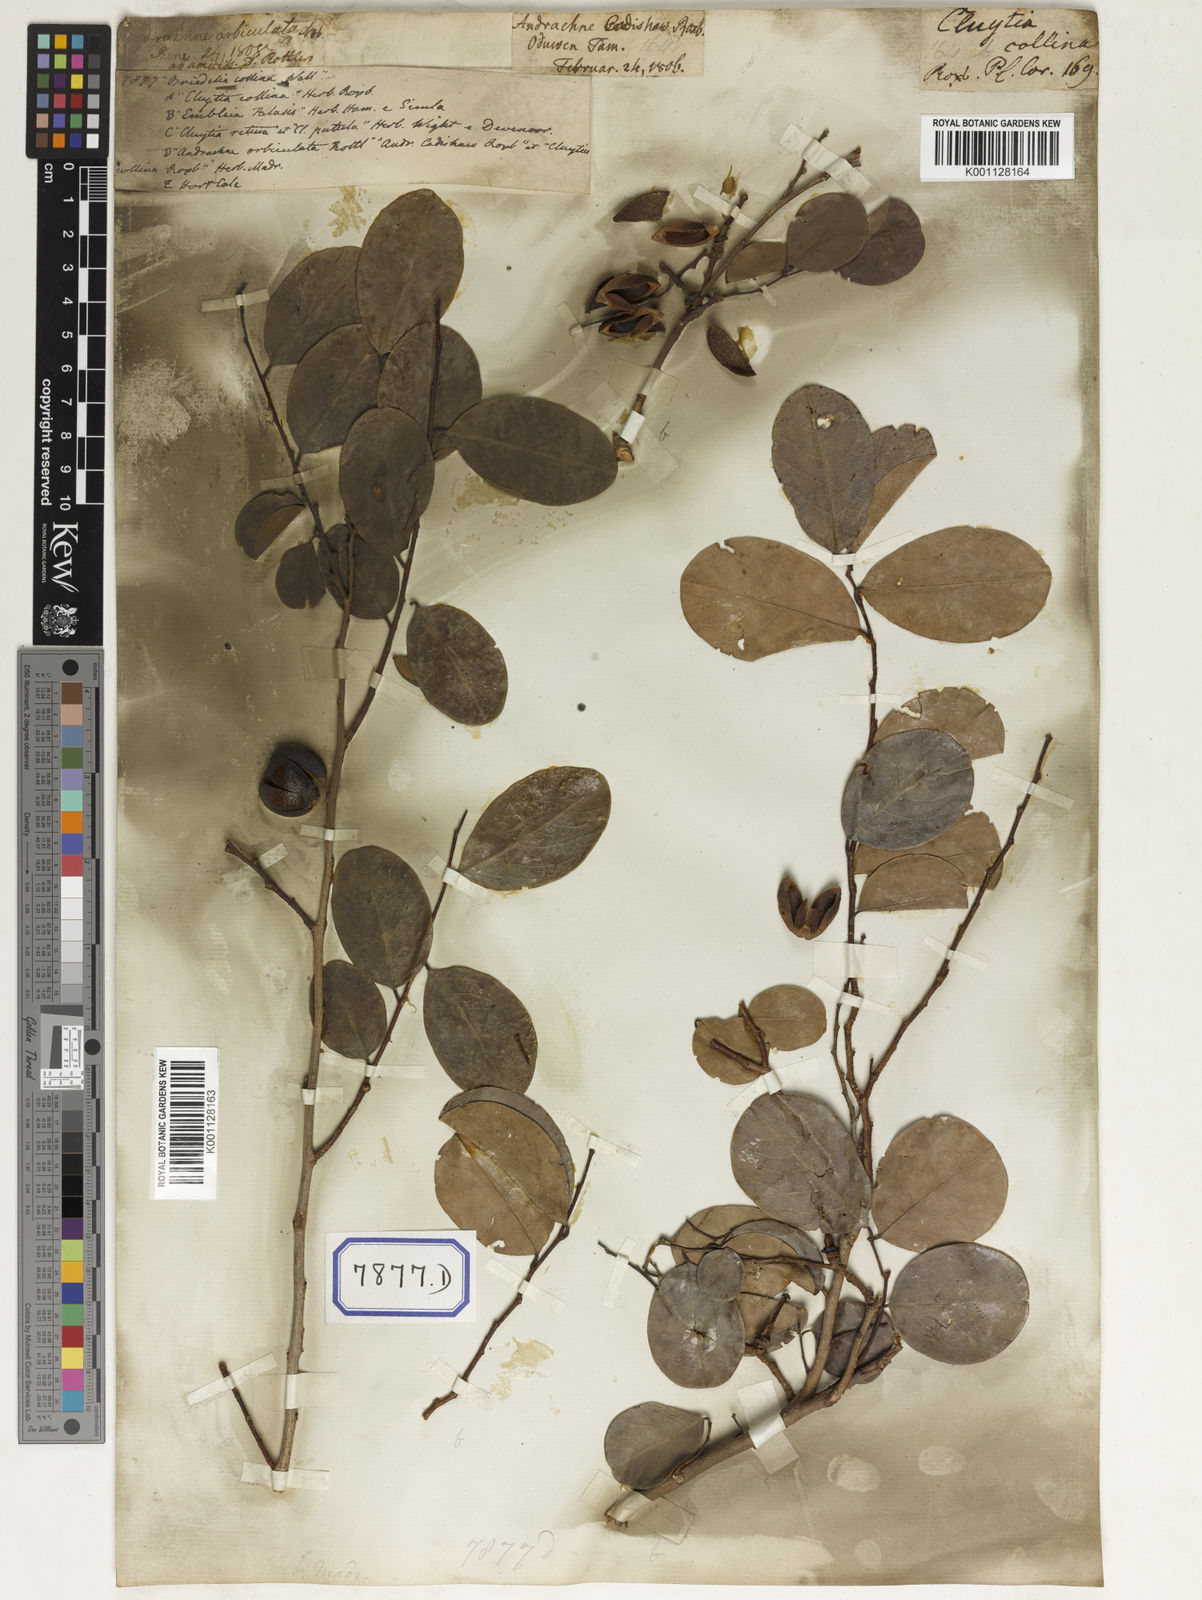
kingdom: Plantae
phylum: Tracheophyta
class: Magnoliopsida
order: Malpighiales
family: Euphorbiaceae
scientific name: Euphorbiaceae
